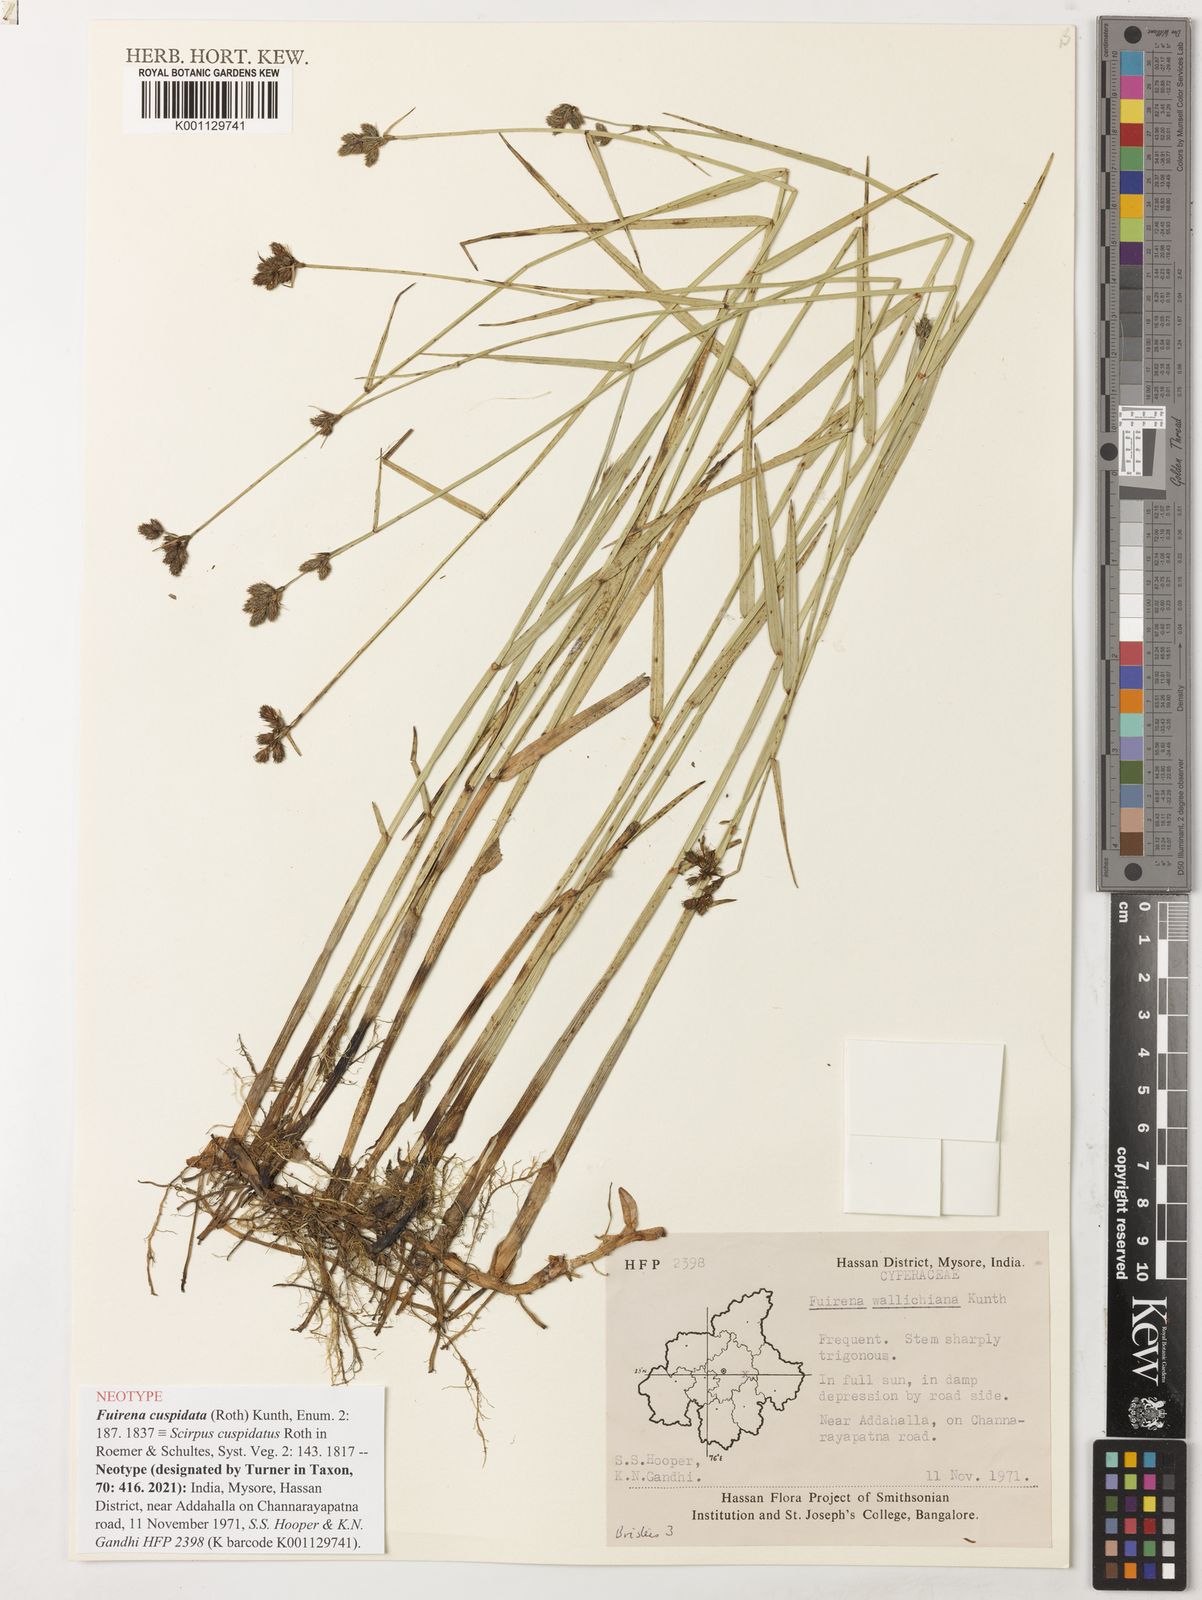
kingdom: Plantae
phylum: Tracheophyta
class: Liliopsida
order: Poales
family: Cyperaceae
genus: Fuirena
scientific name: Fuirena cuspidata
